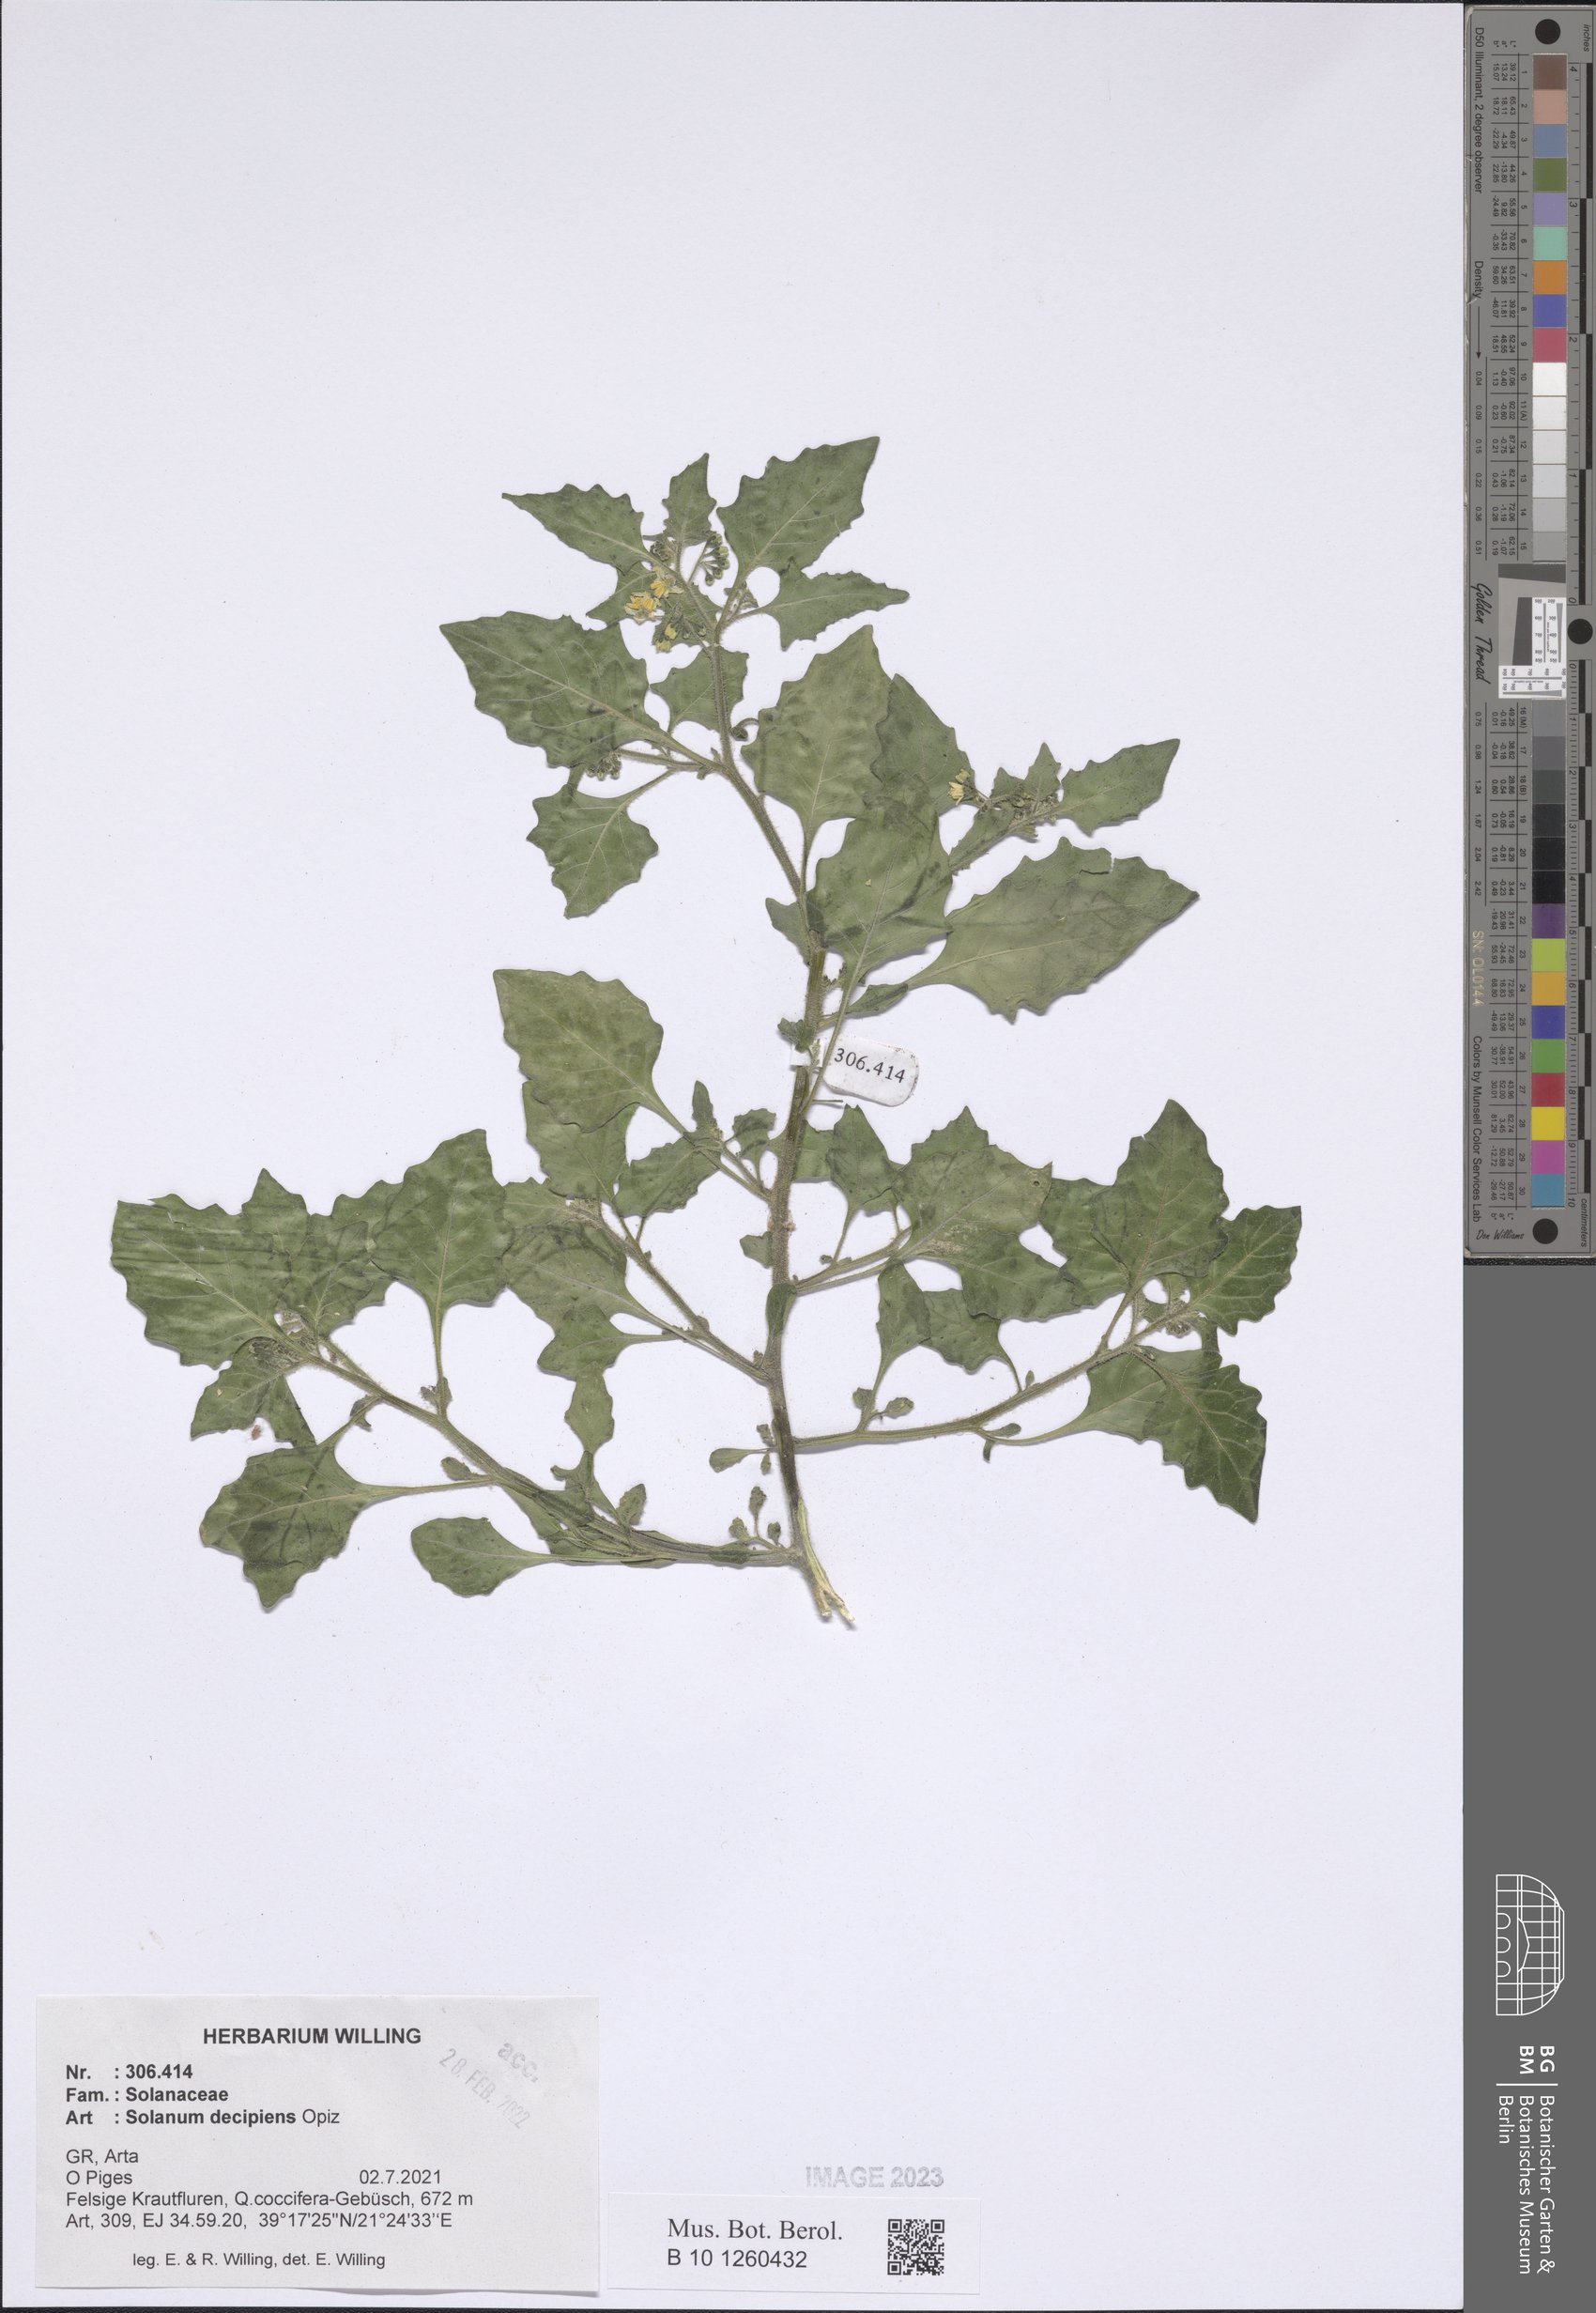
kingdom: Plantae
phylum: Tracheophyta
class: Magnoliopsida
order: Solanales
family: Solanaceae
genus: Solanum
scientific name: Solanum decipiens
